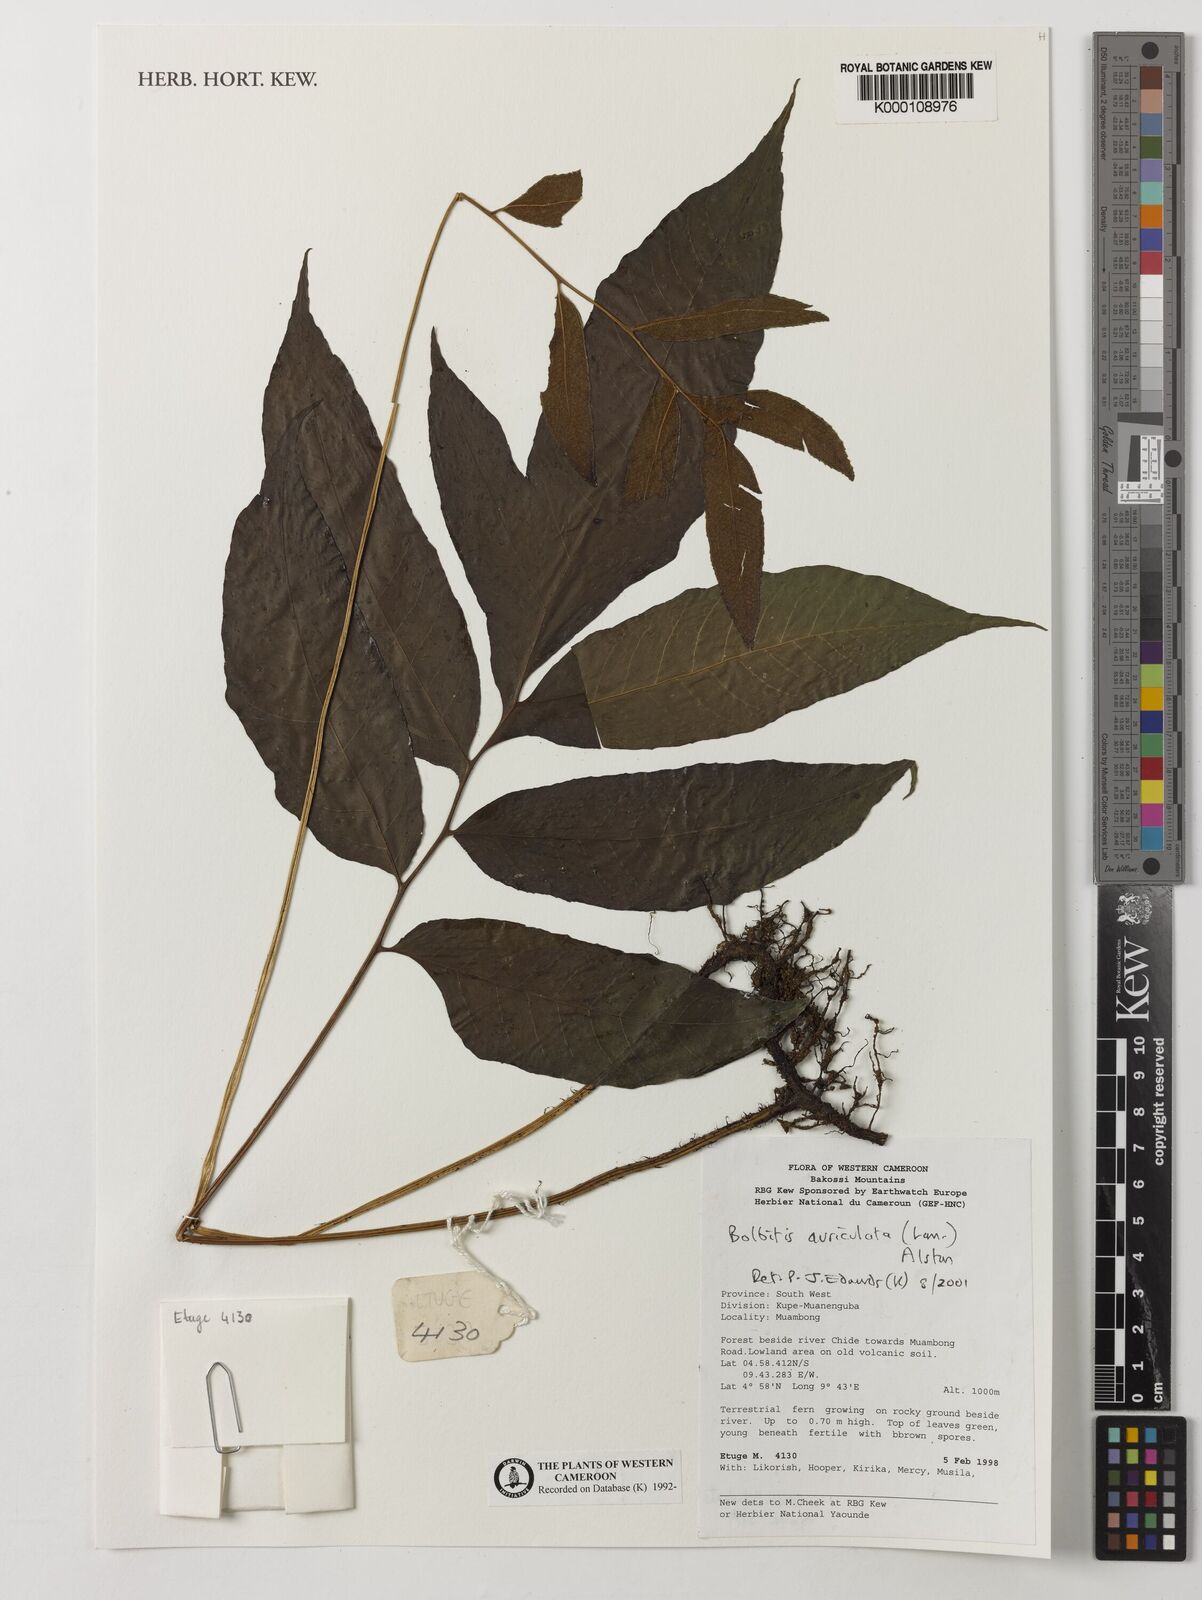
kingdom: Plantae
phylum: Tracheophyta
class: Polypodiopsida
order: Polypodiales
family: Dryopteridaceae
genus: Bolbitis
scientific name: Bolbitis auriculata
